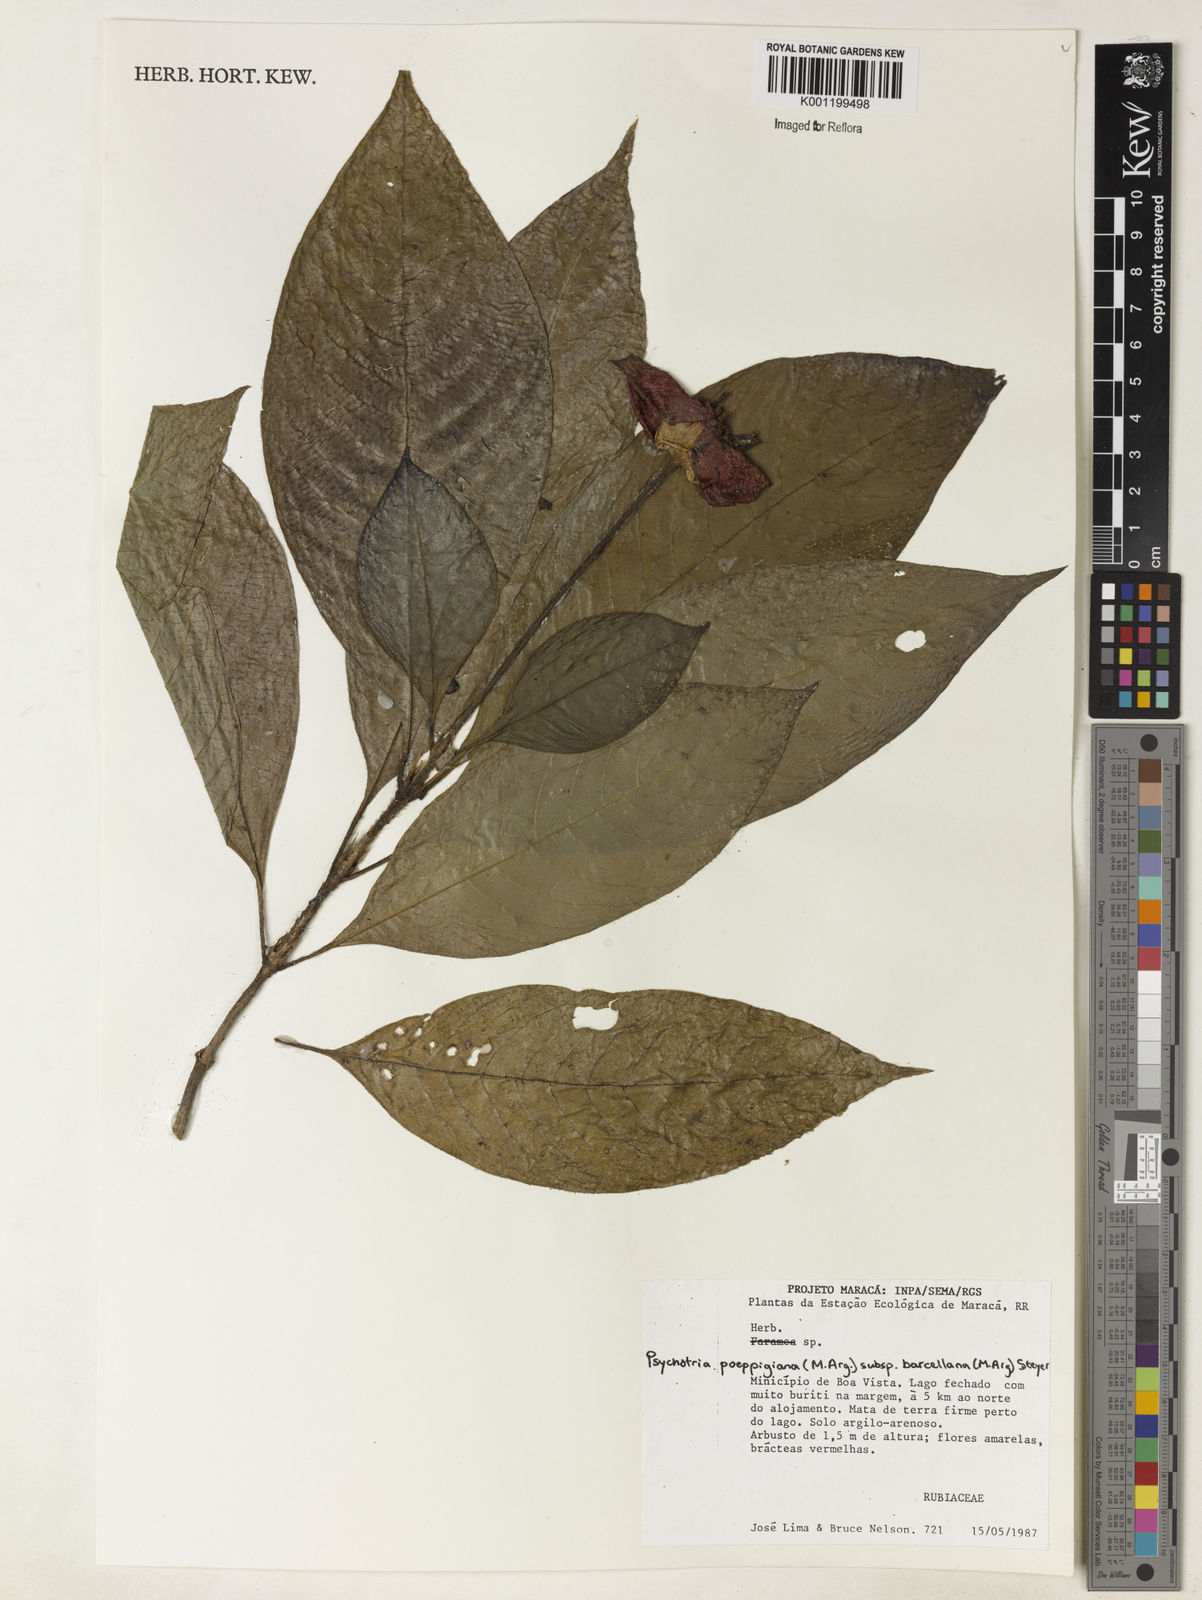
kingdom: Plantae
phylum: Tracheophyta
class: Magnoliopsida
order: Gentianales
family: Rubiaceae
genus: Psychotria
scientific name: Psychotria
